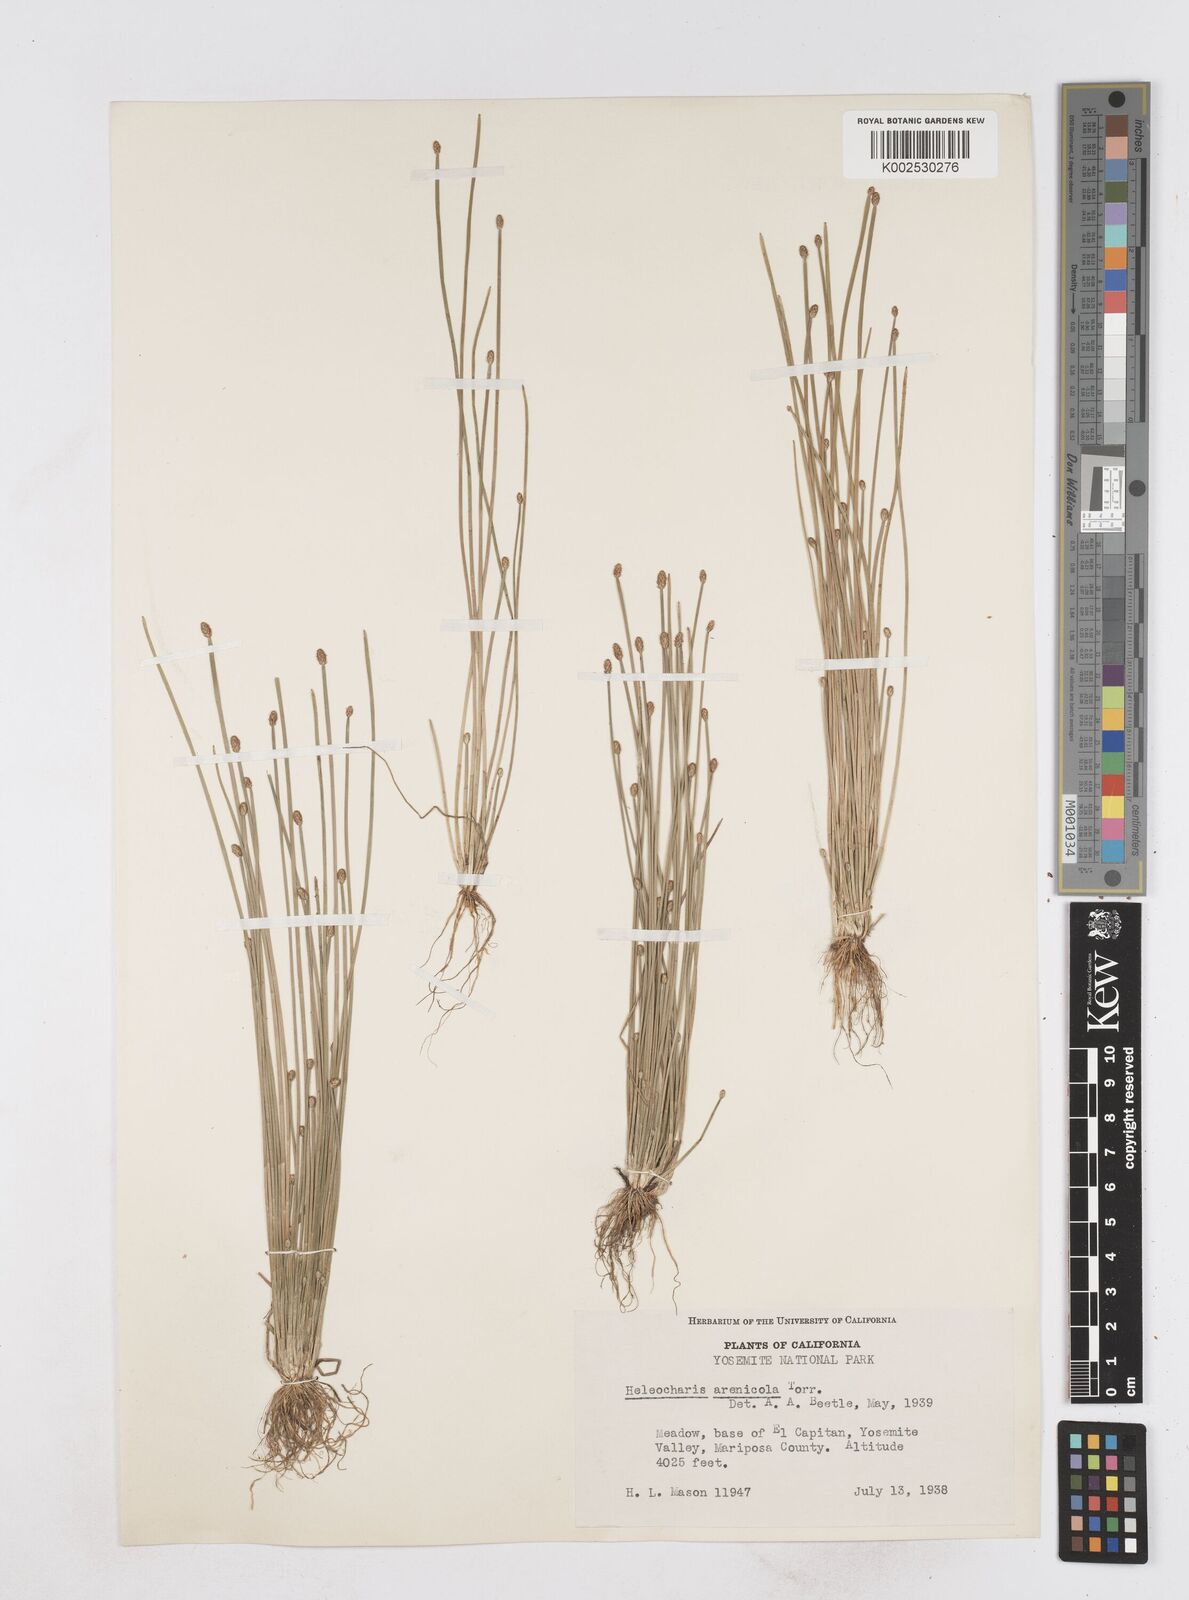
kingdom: Plantae
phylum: Tracheophyta
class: Liliopsida
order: Poales
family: Cyperaceae
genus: Eleocharis
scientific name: Eleocharis macounii
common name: Macoun's spikerush
